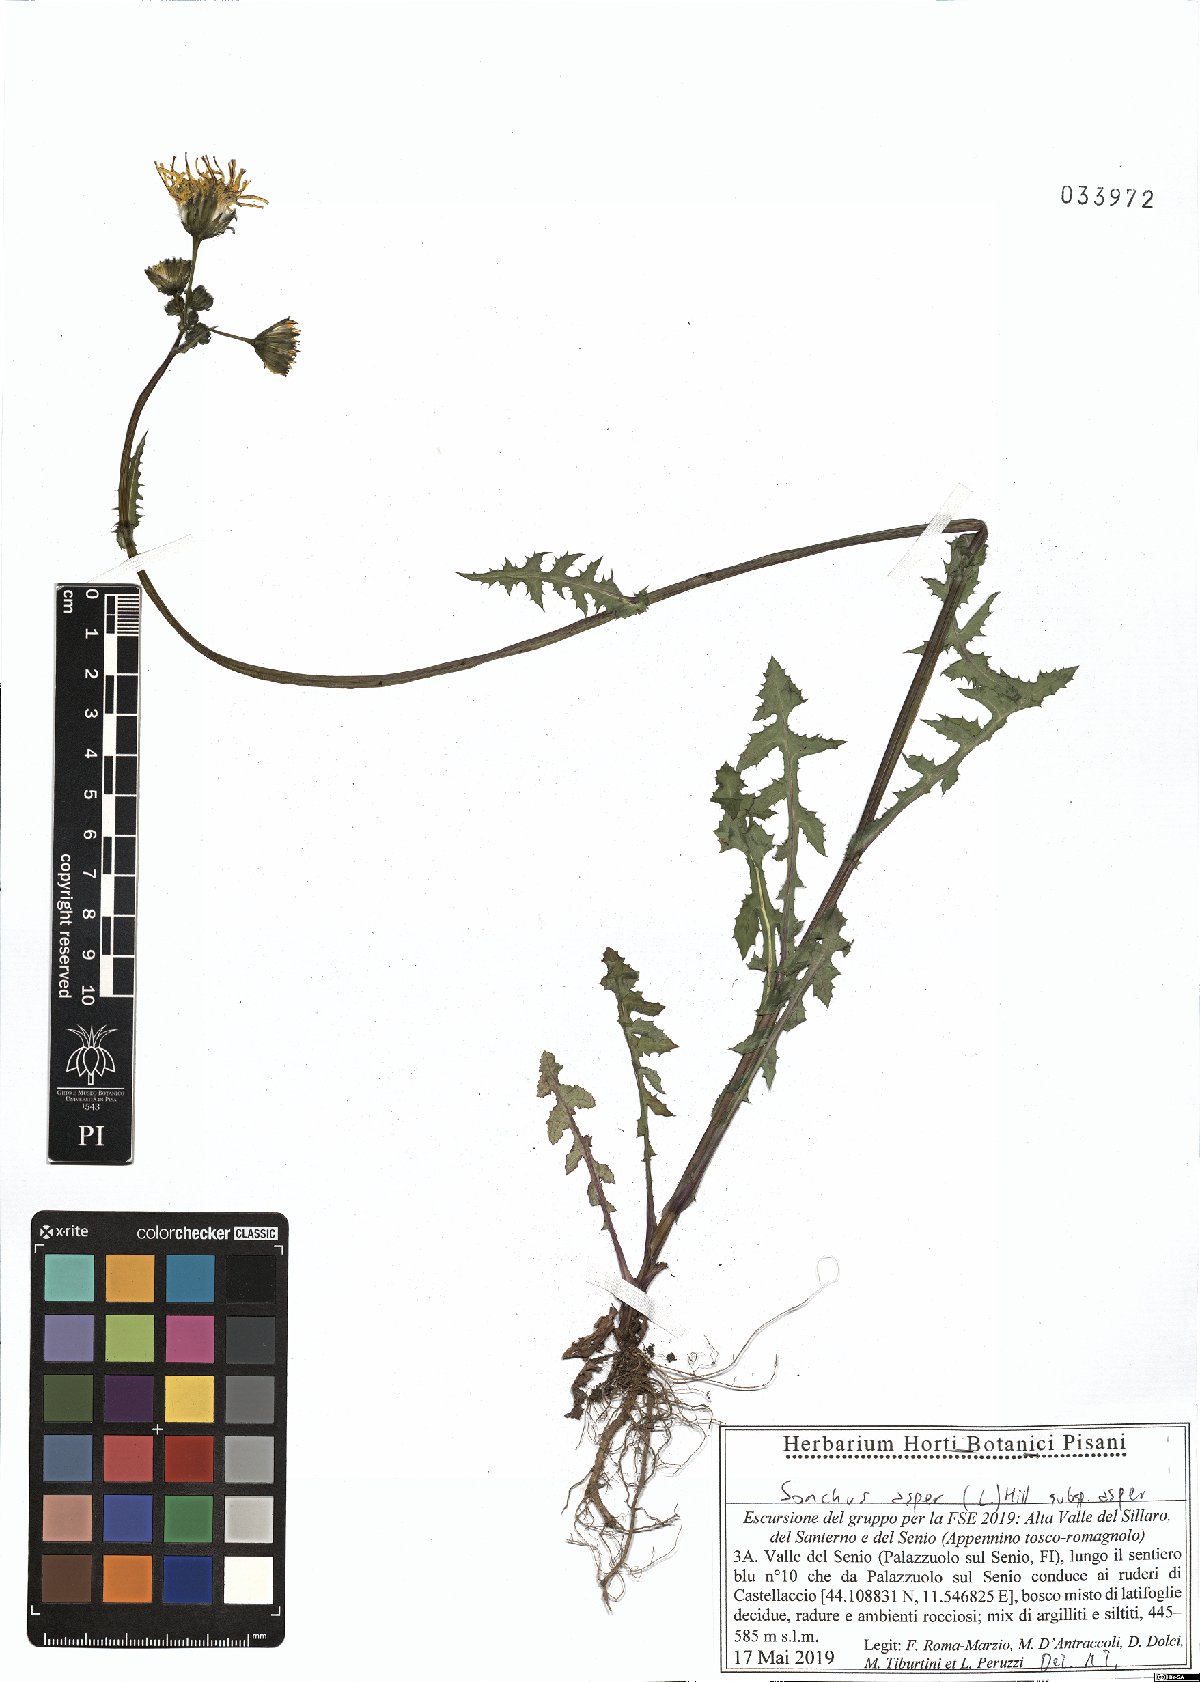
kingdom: Plantae
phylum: Tracheophyta
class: Magnoliopsida
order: Asterales
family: Asteraceae
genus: Sonchus
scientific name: Sonchus asper
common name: Prickly sow-thistle
